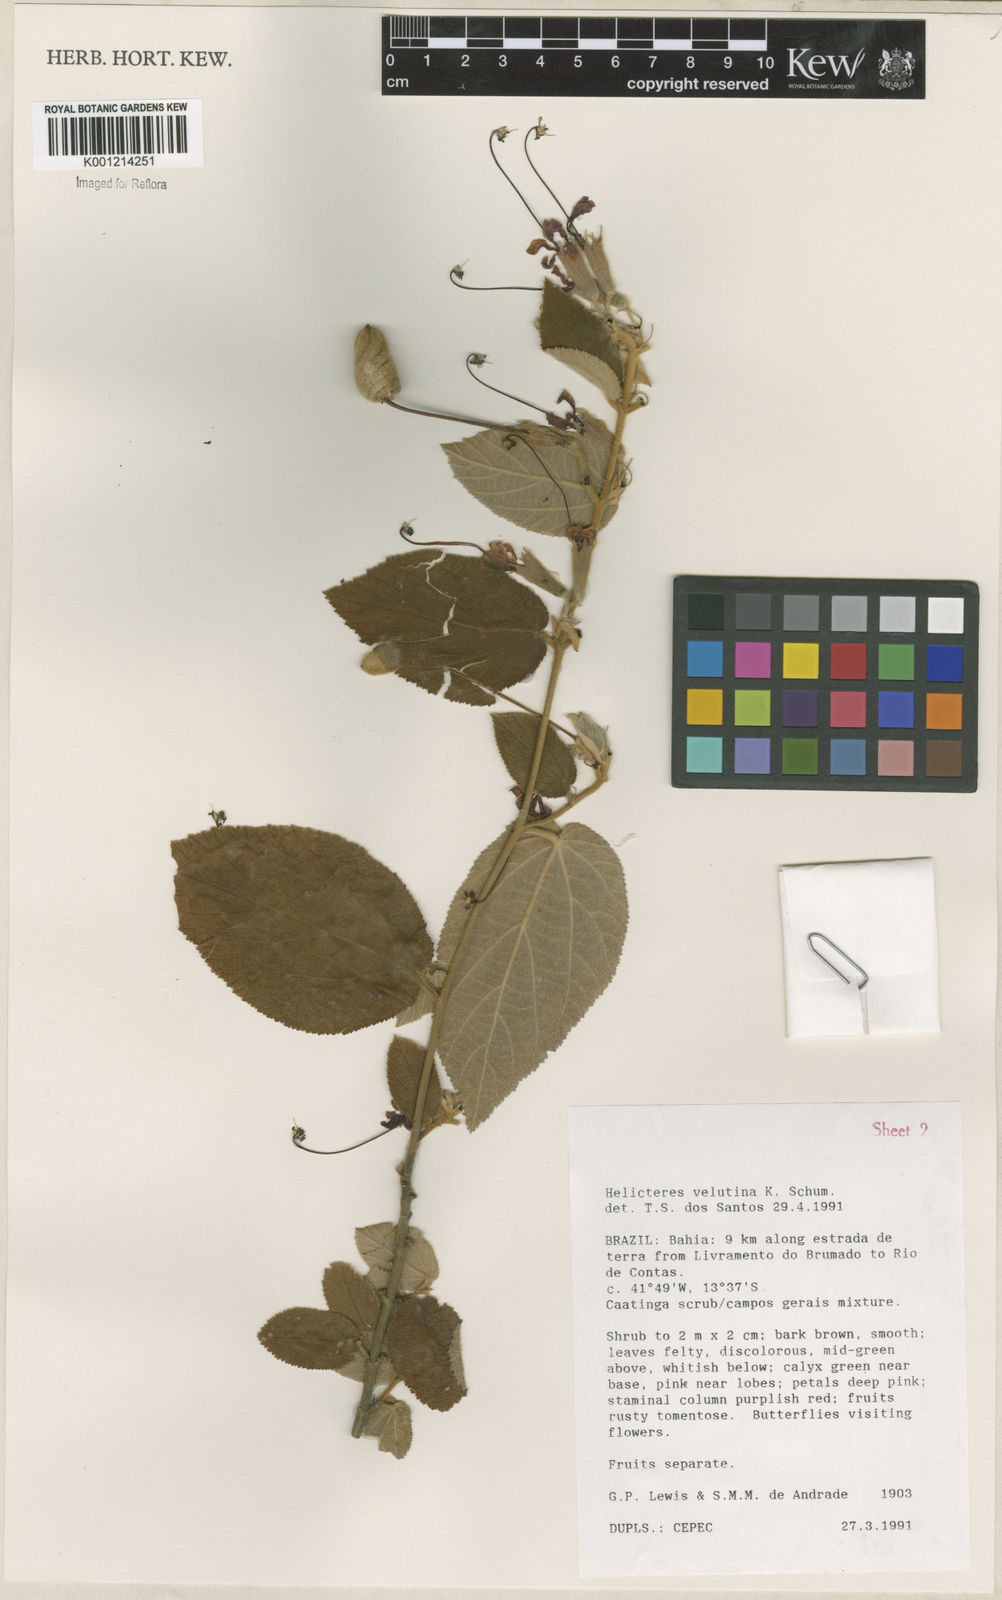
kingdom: Plantae
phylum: Tracheophyta
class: Magnoliopsida
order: Malvales
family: Malvaceae
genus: Helicteres
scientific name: Helicteres velutina
